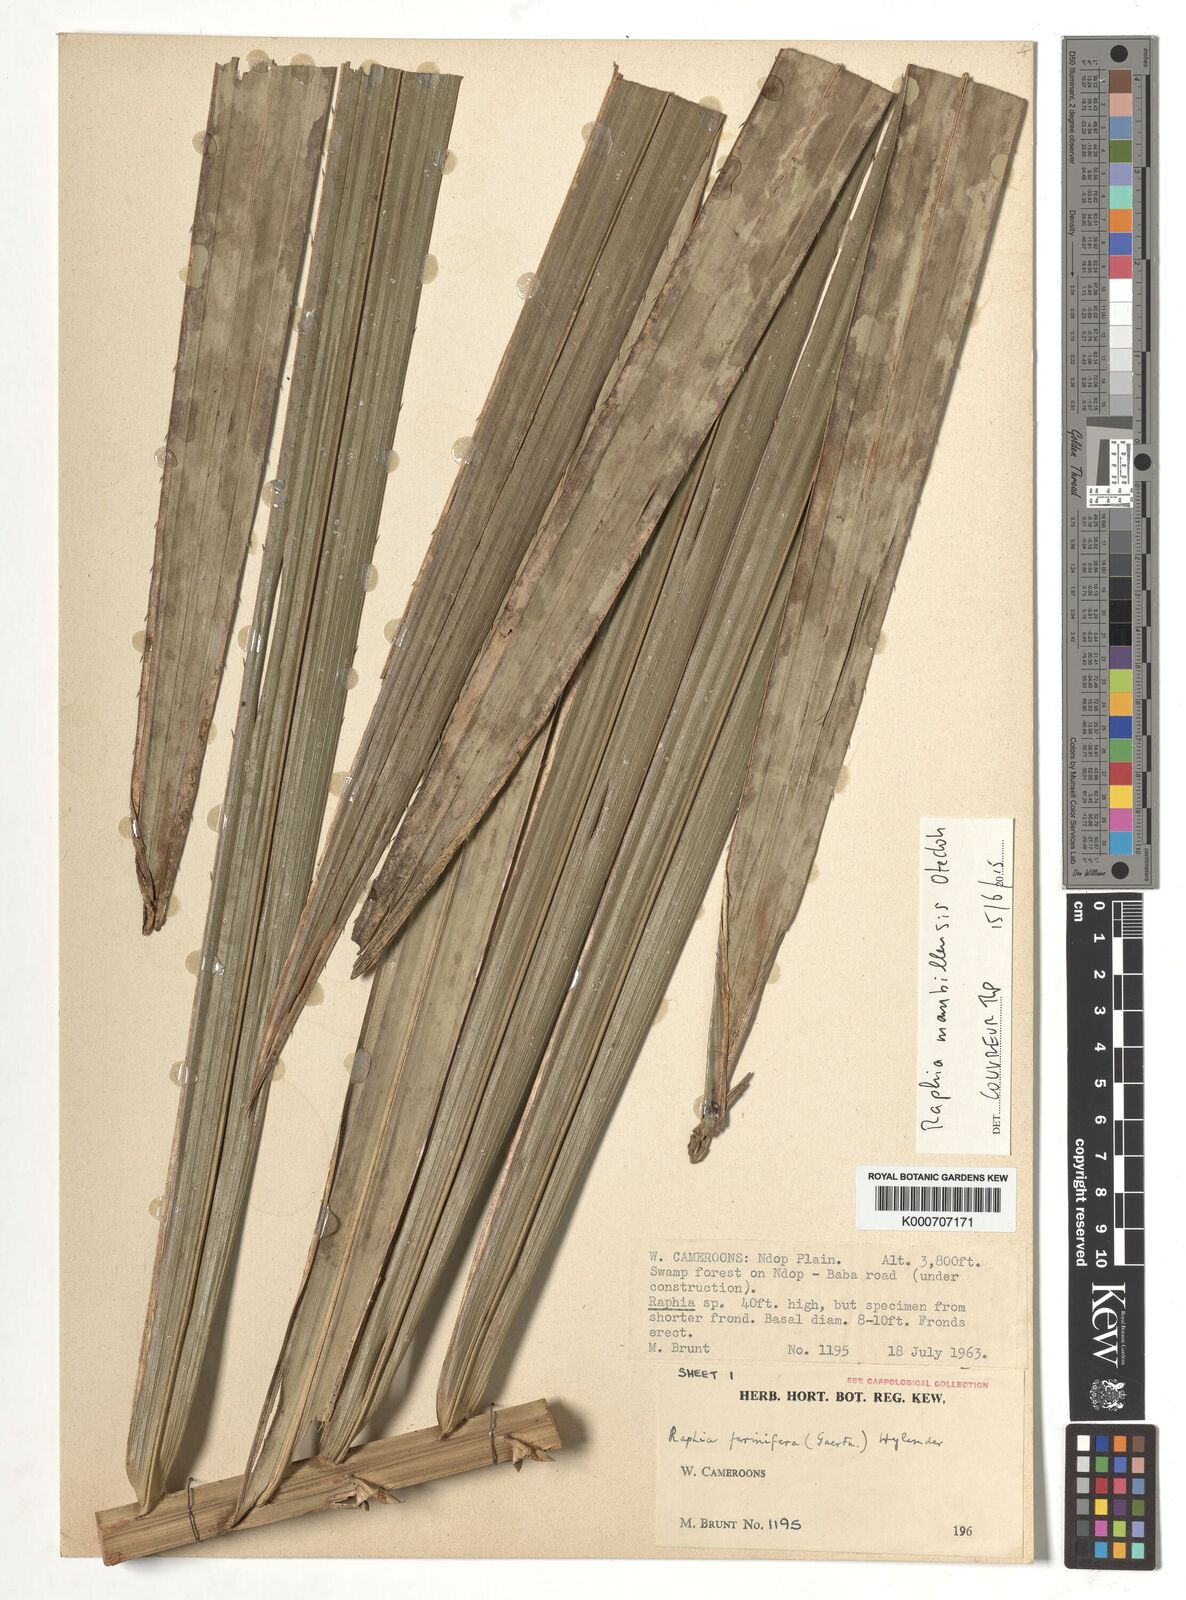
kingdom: Plantae
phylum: Tracheophyta
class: Liliopsida
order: Arecales
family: Arecaceae
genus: Raphia
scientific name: Raphia vinifera
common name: Raphia palm
